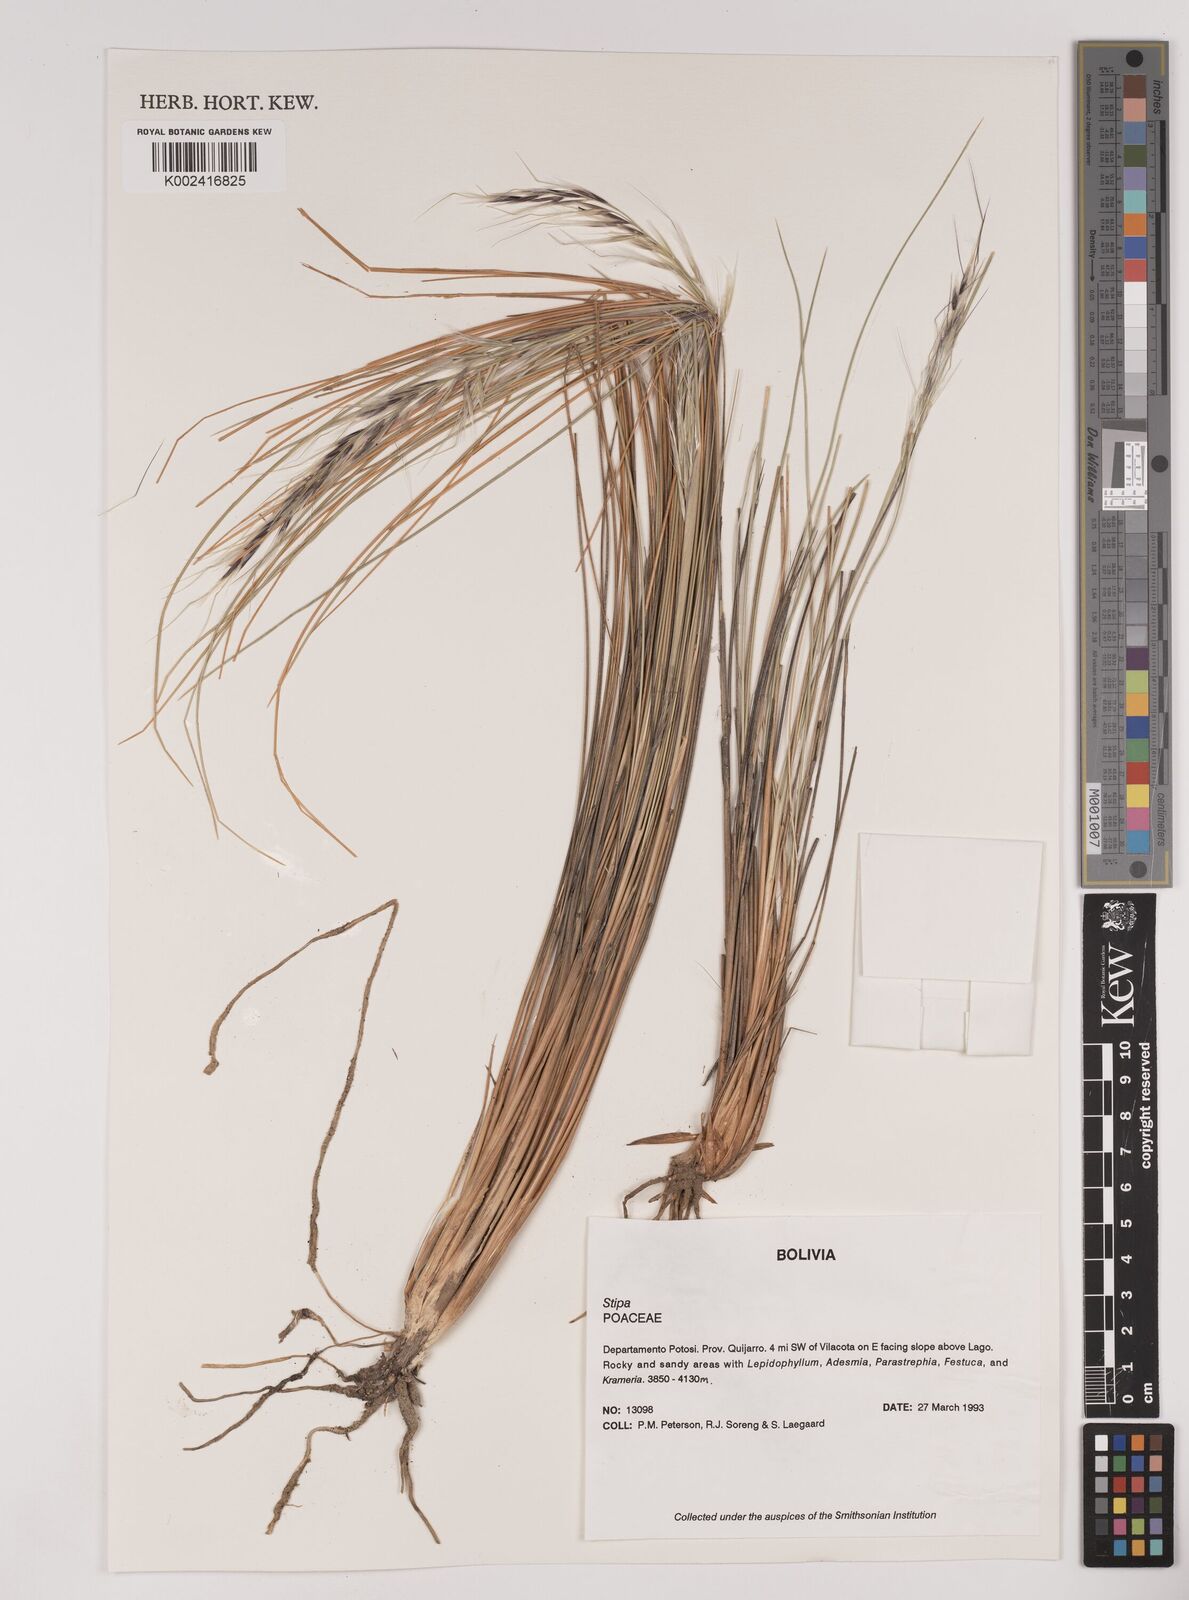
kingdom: Plantae
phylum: Tracheophyta
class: Liliopsida
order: Poales
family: Poaceae
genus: Pappostipa
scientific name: Pappostipa vaginata
